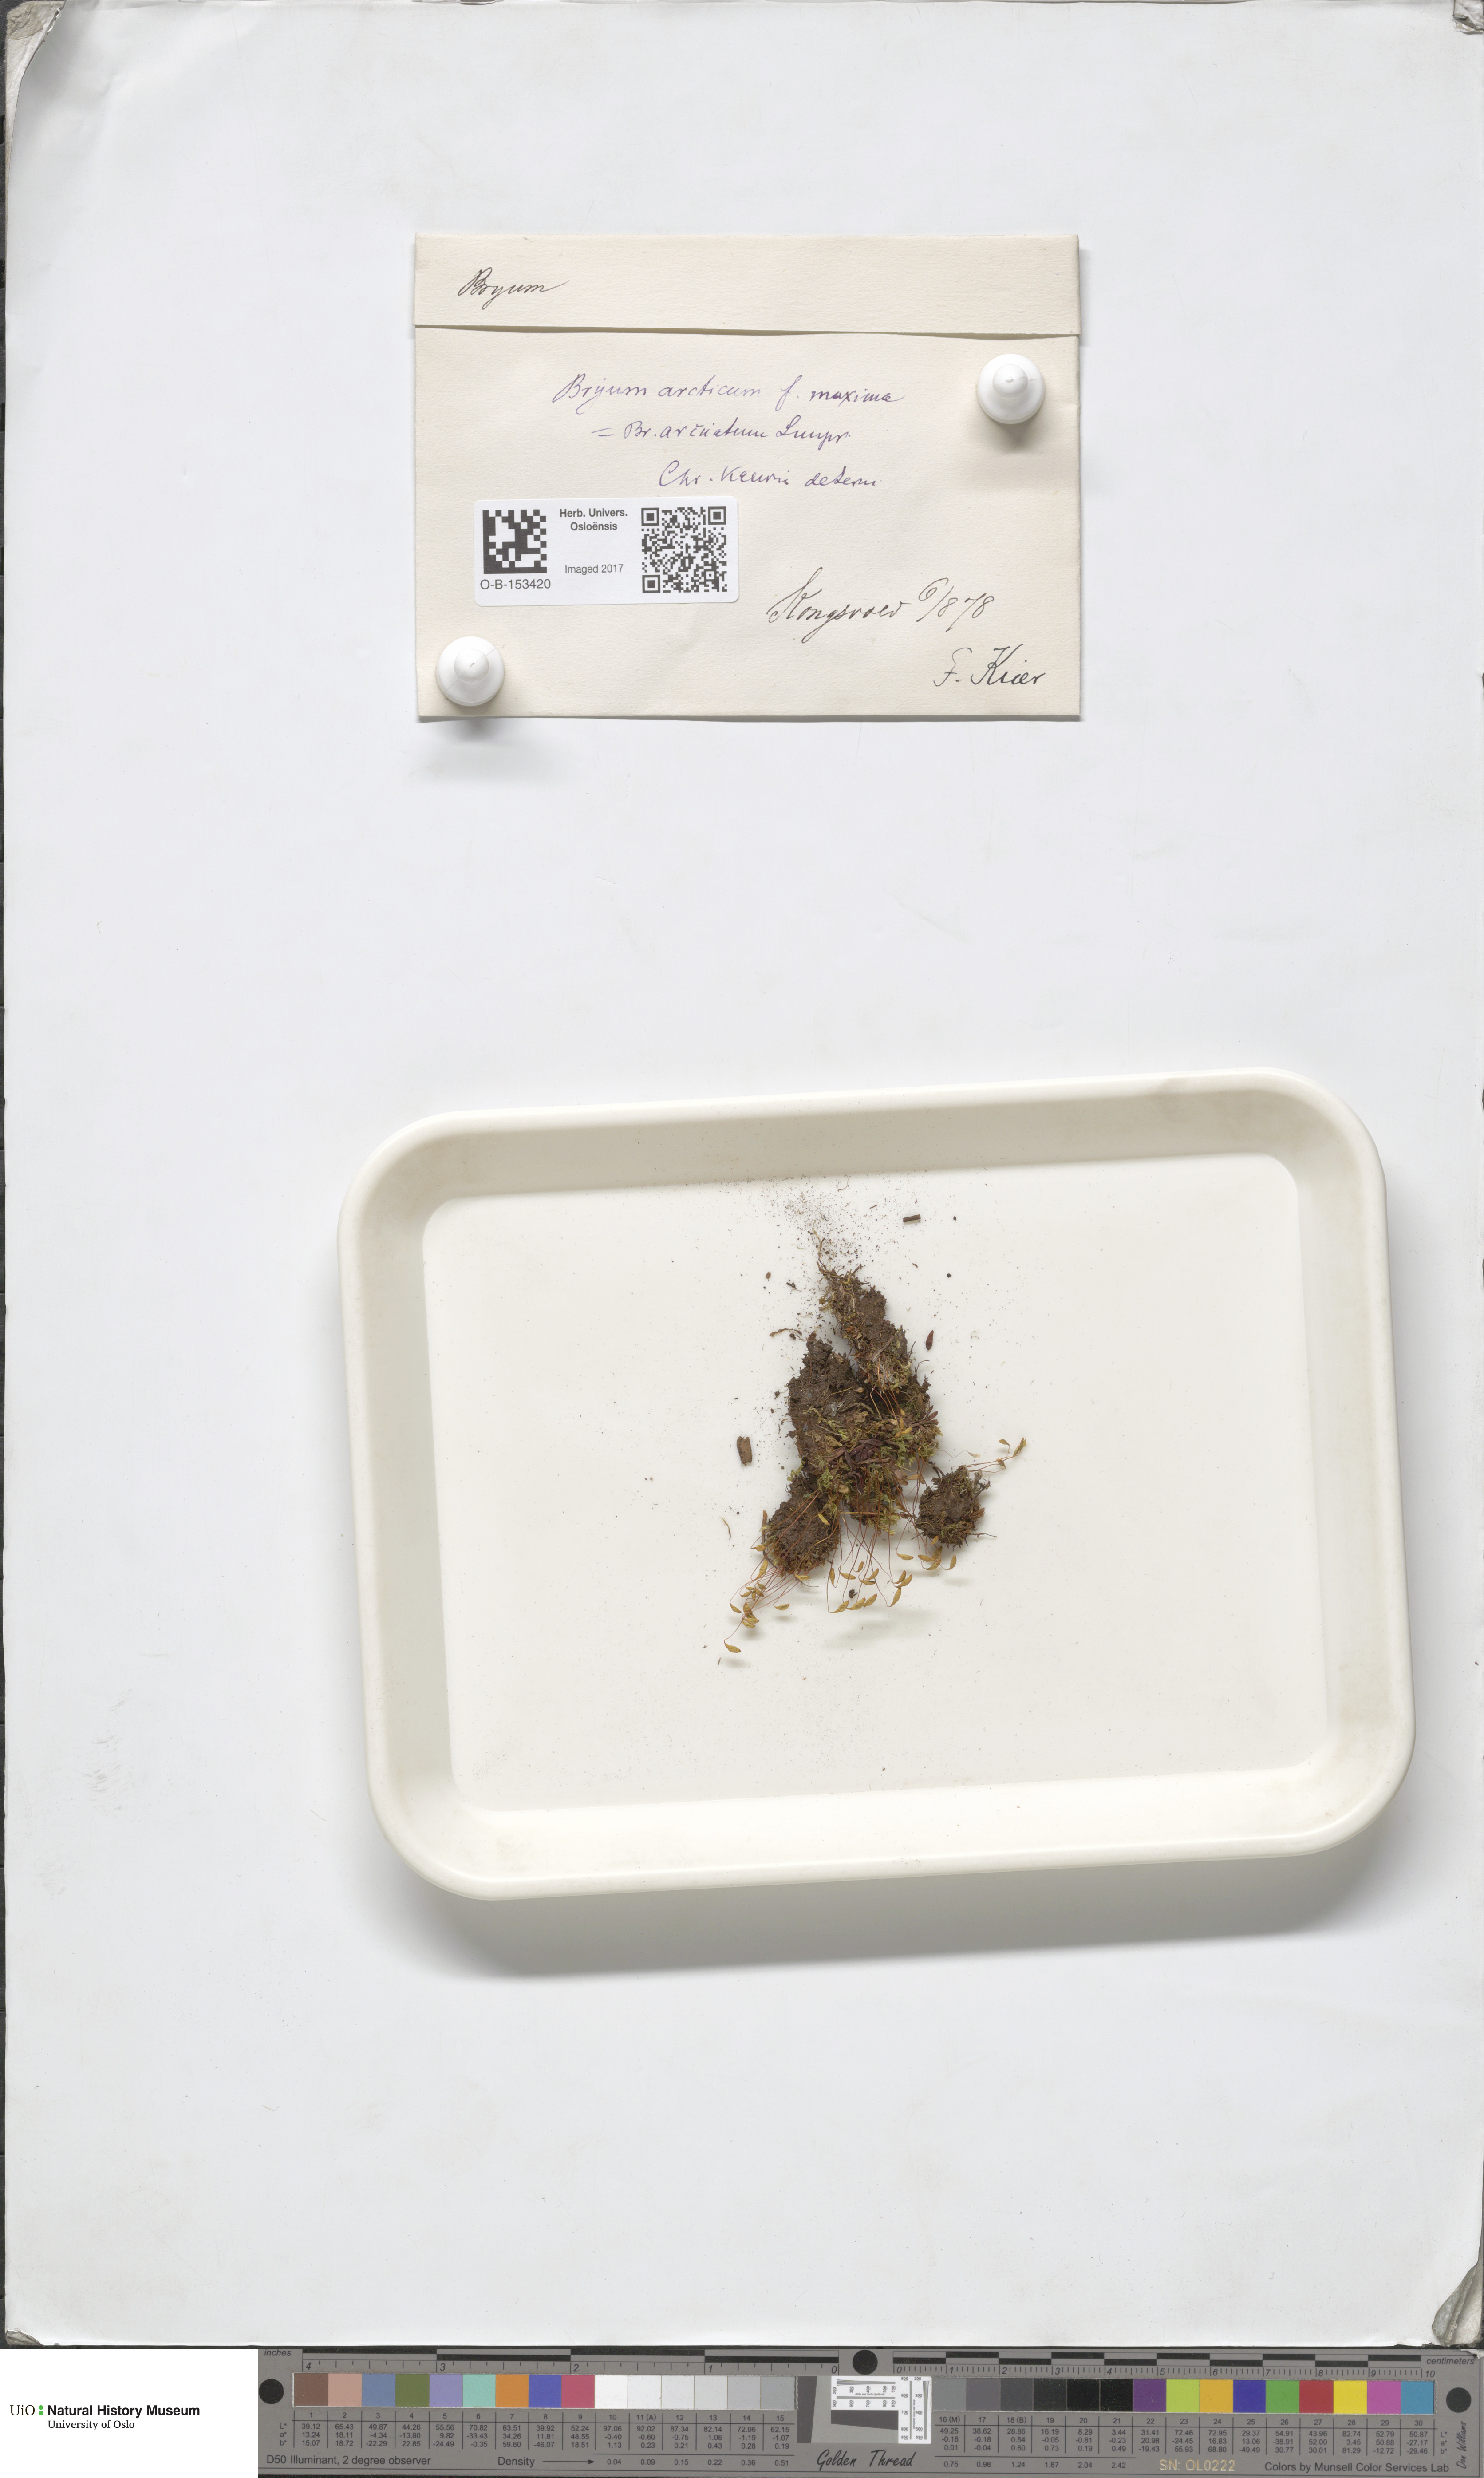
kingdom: Plantae
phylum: Bryophyta
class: Bryopsida
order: Bryales
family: Bryaceae
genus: Ptychostomum
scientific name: Ptychostomum arcticum
